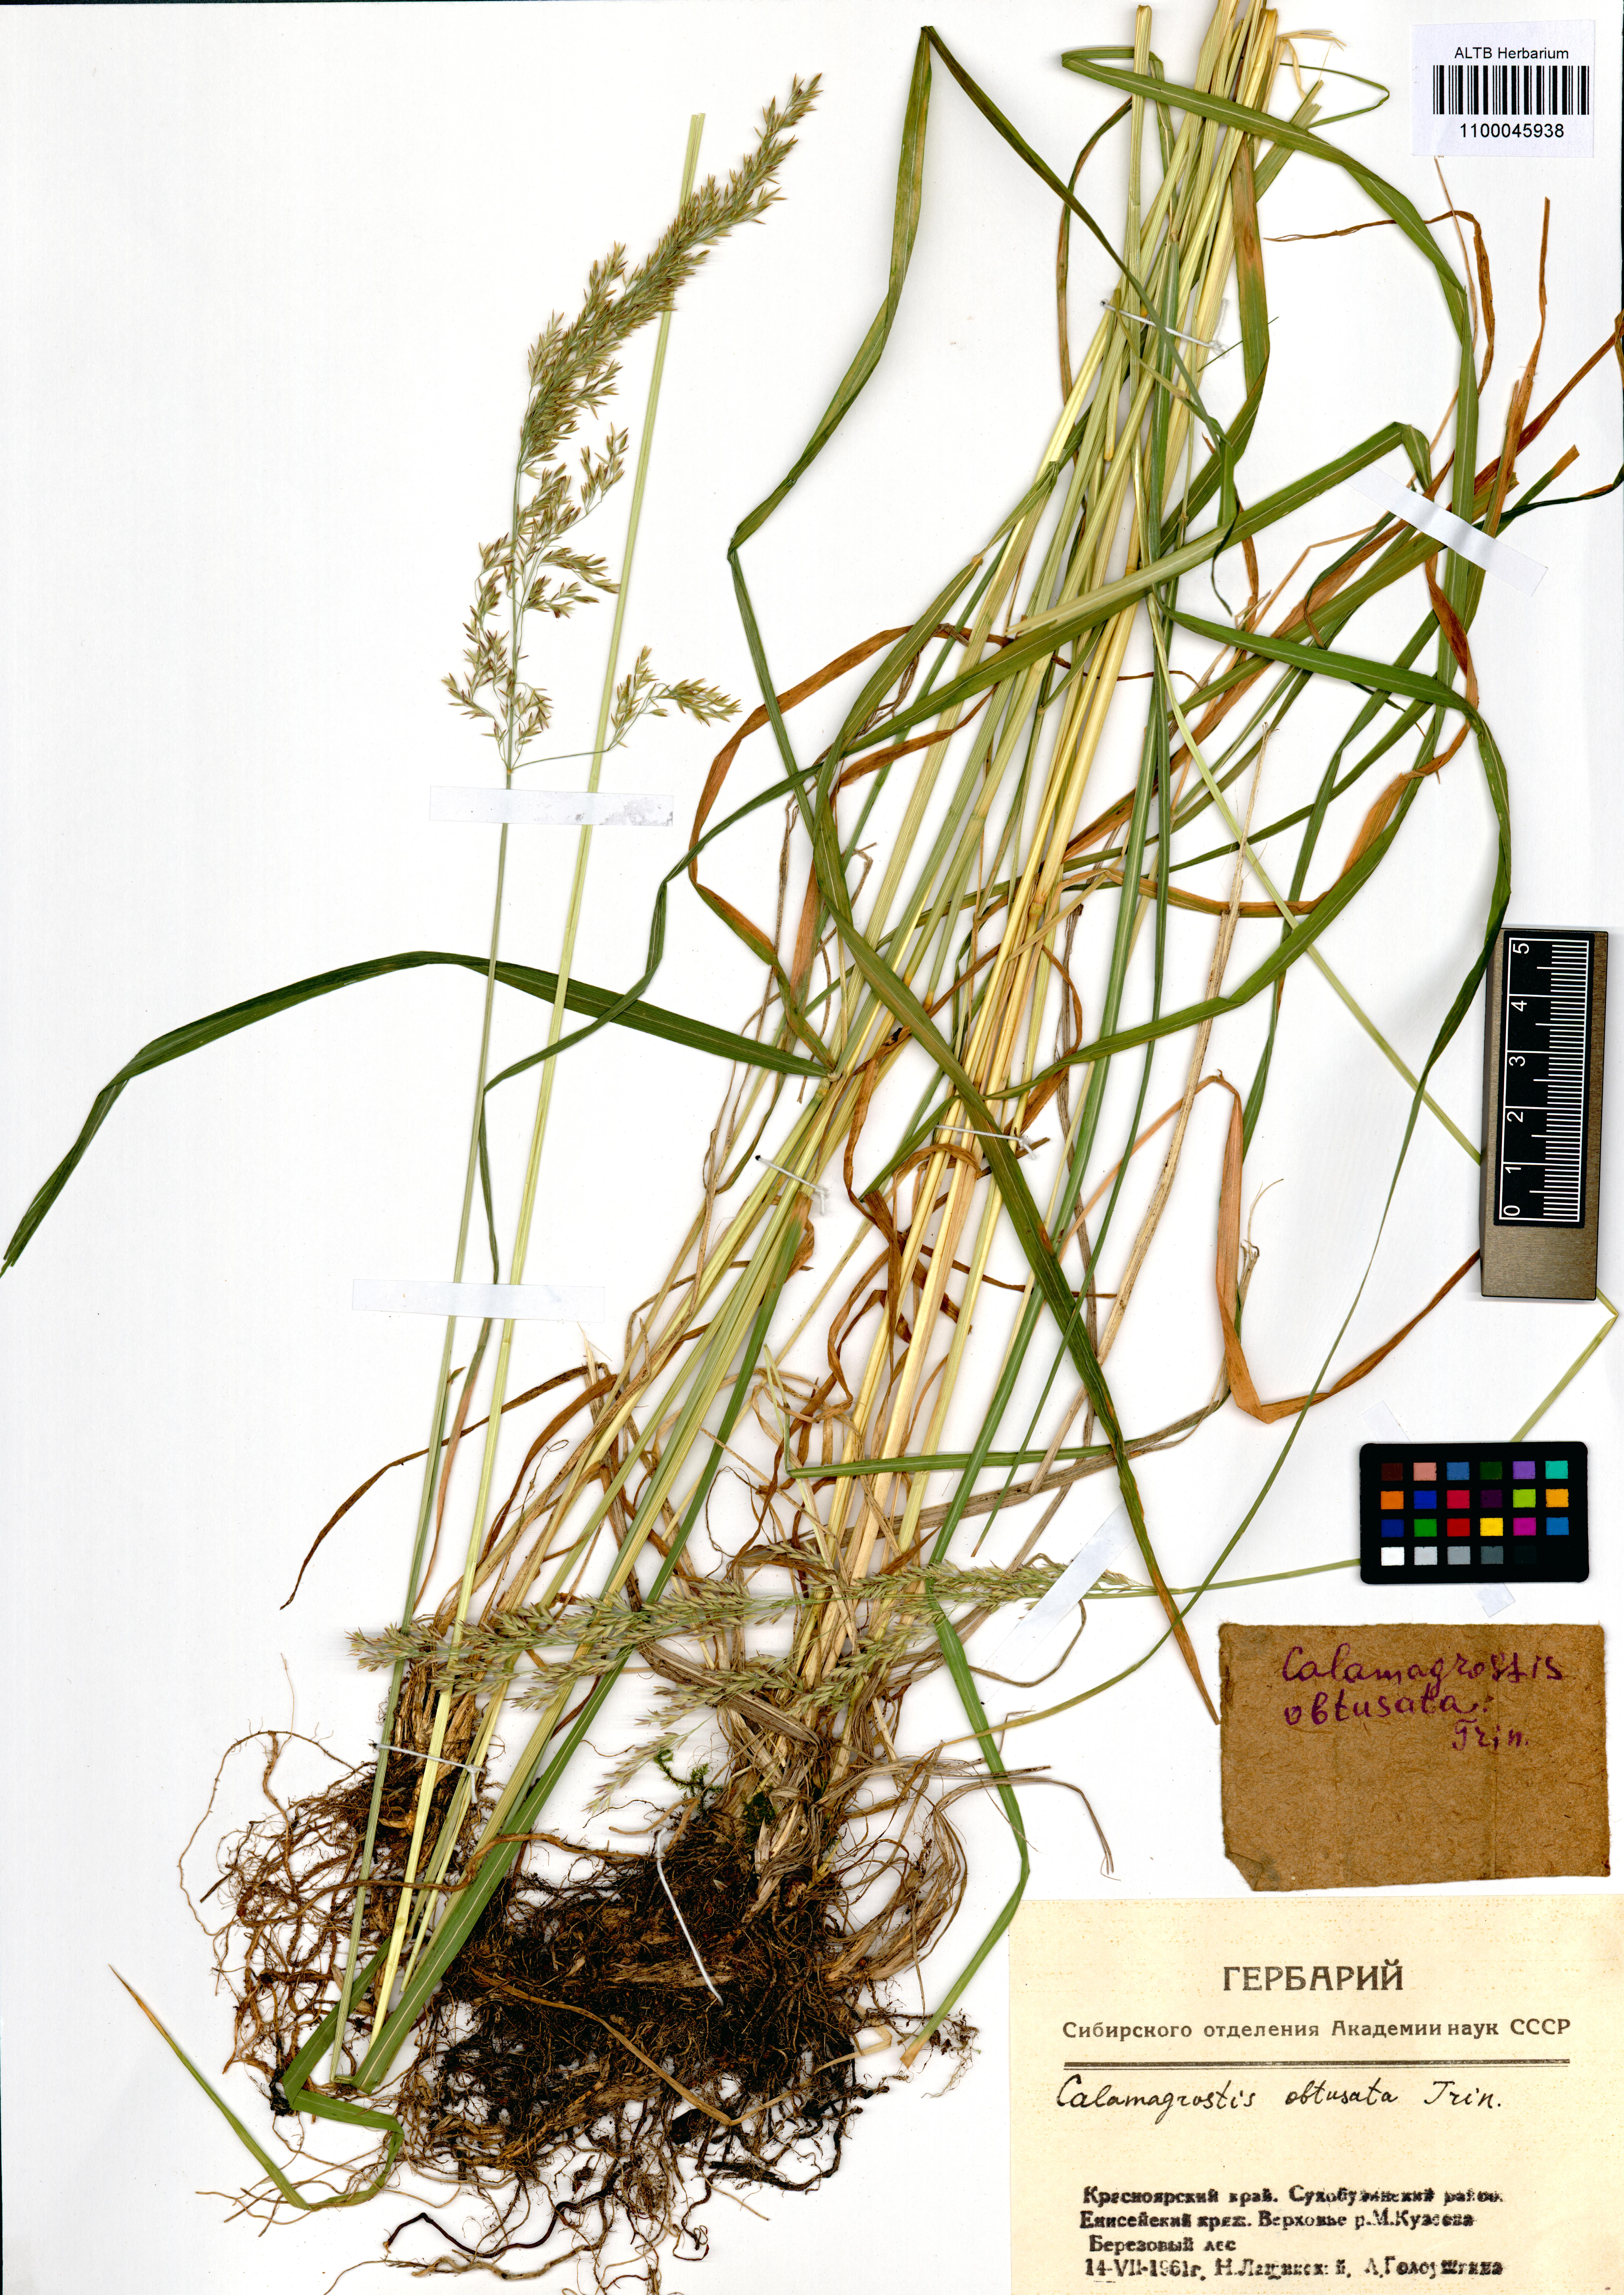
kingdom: Plantae
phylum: Tracheophyta
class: Liliopsida
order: Poales
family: Poaceae
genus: Calamagrostis
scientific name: Calamagrostis obtusata
